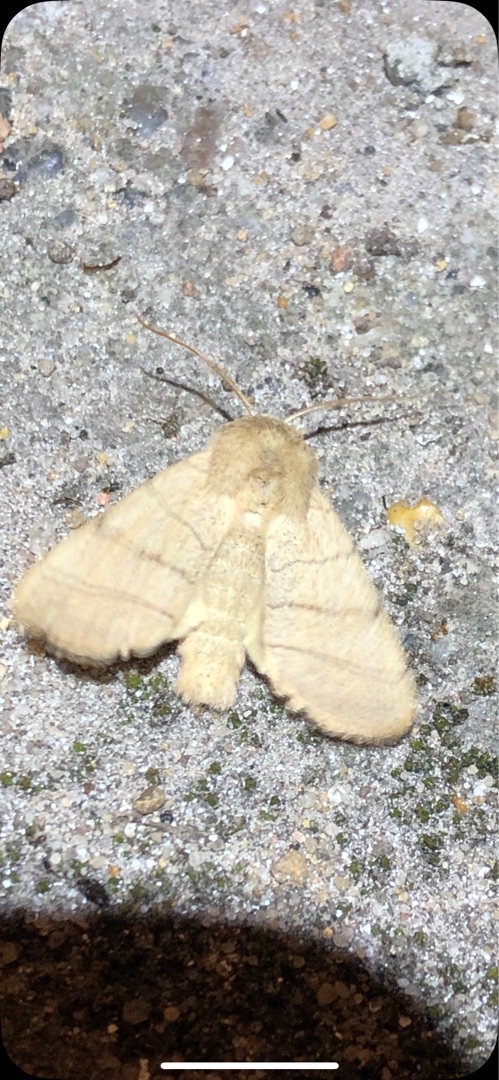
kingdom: Animalia
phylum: Arthropoda
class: Insecta
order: Lepidoptera
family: Noctuidae
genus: Charanyca
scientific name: Charanyca trigrammica
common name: Firestreget ugle
